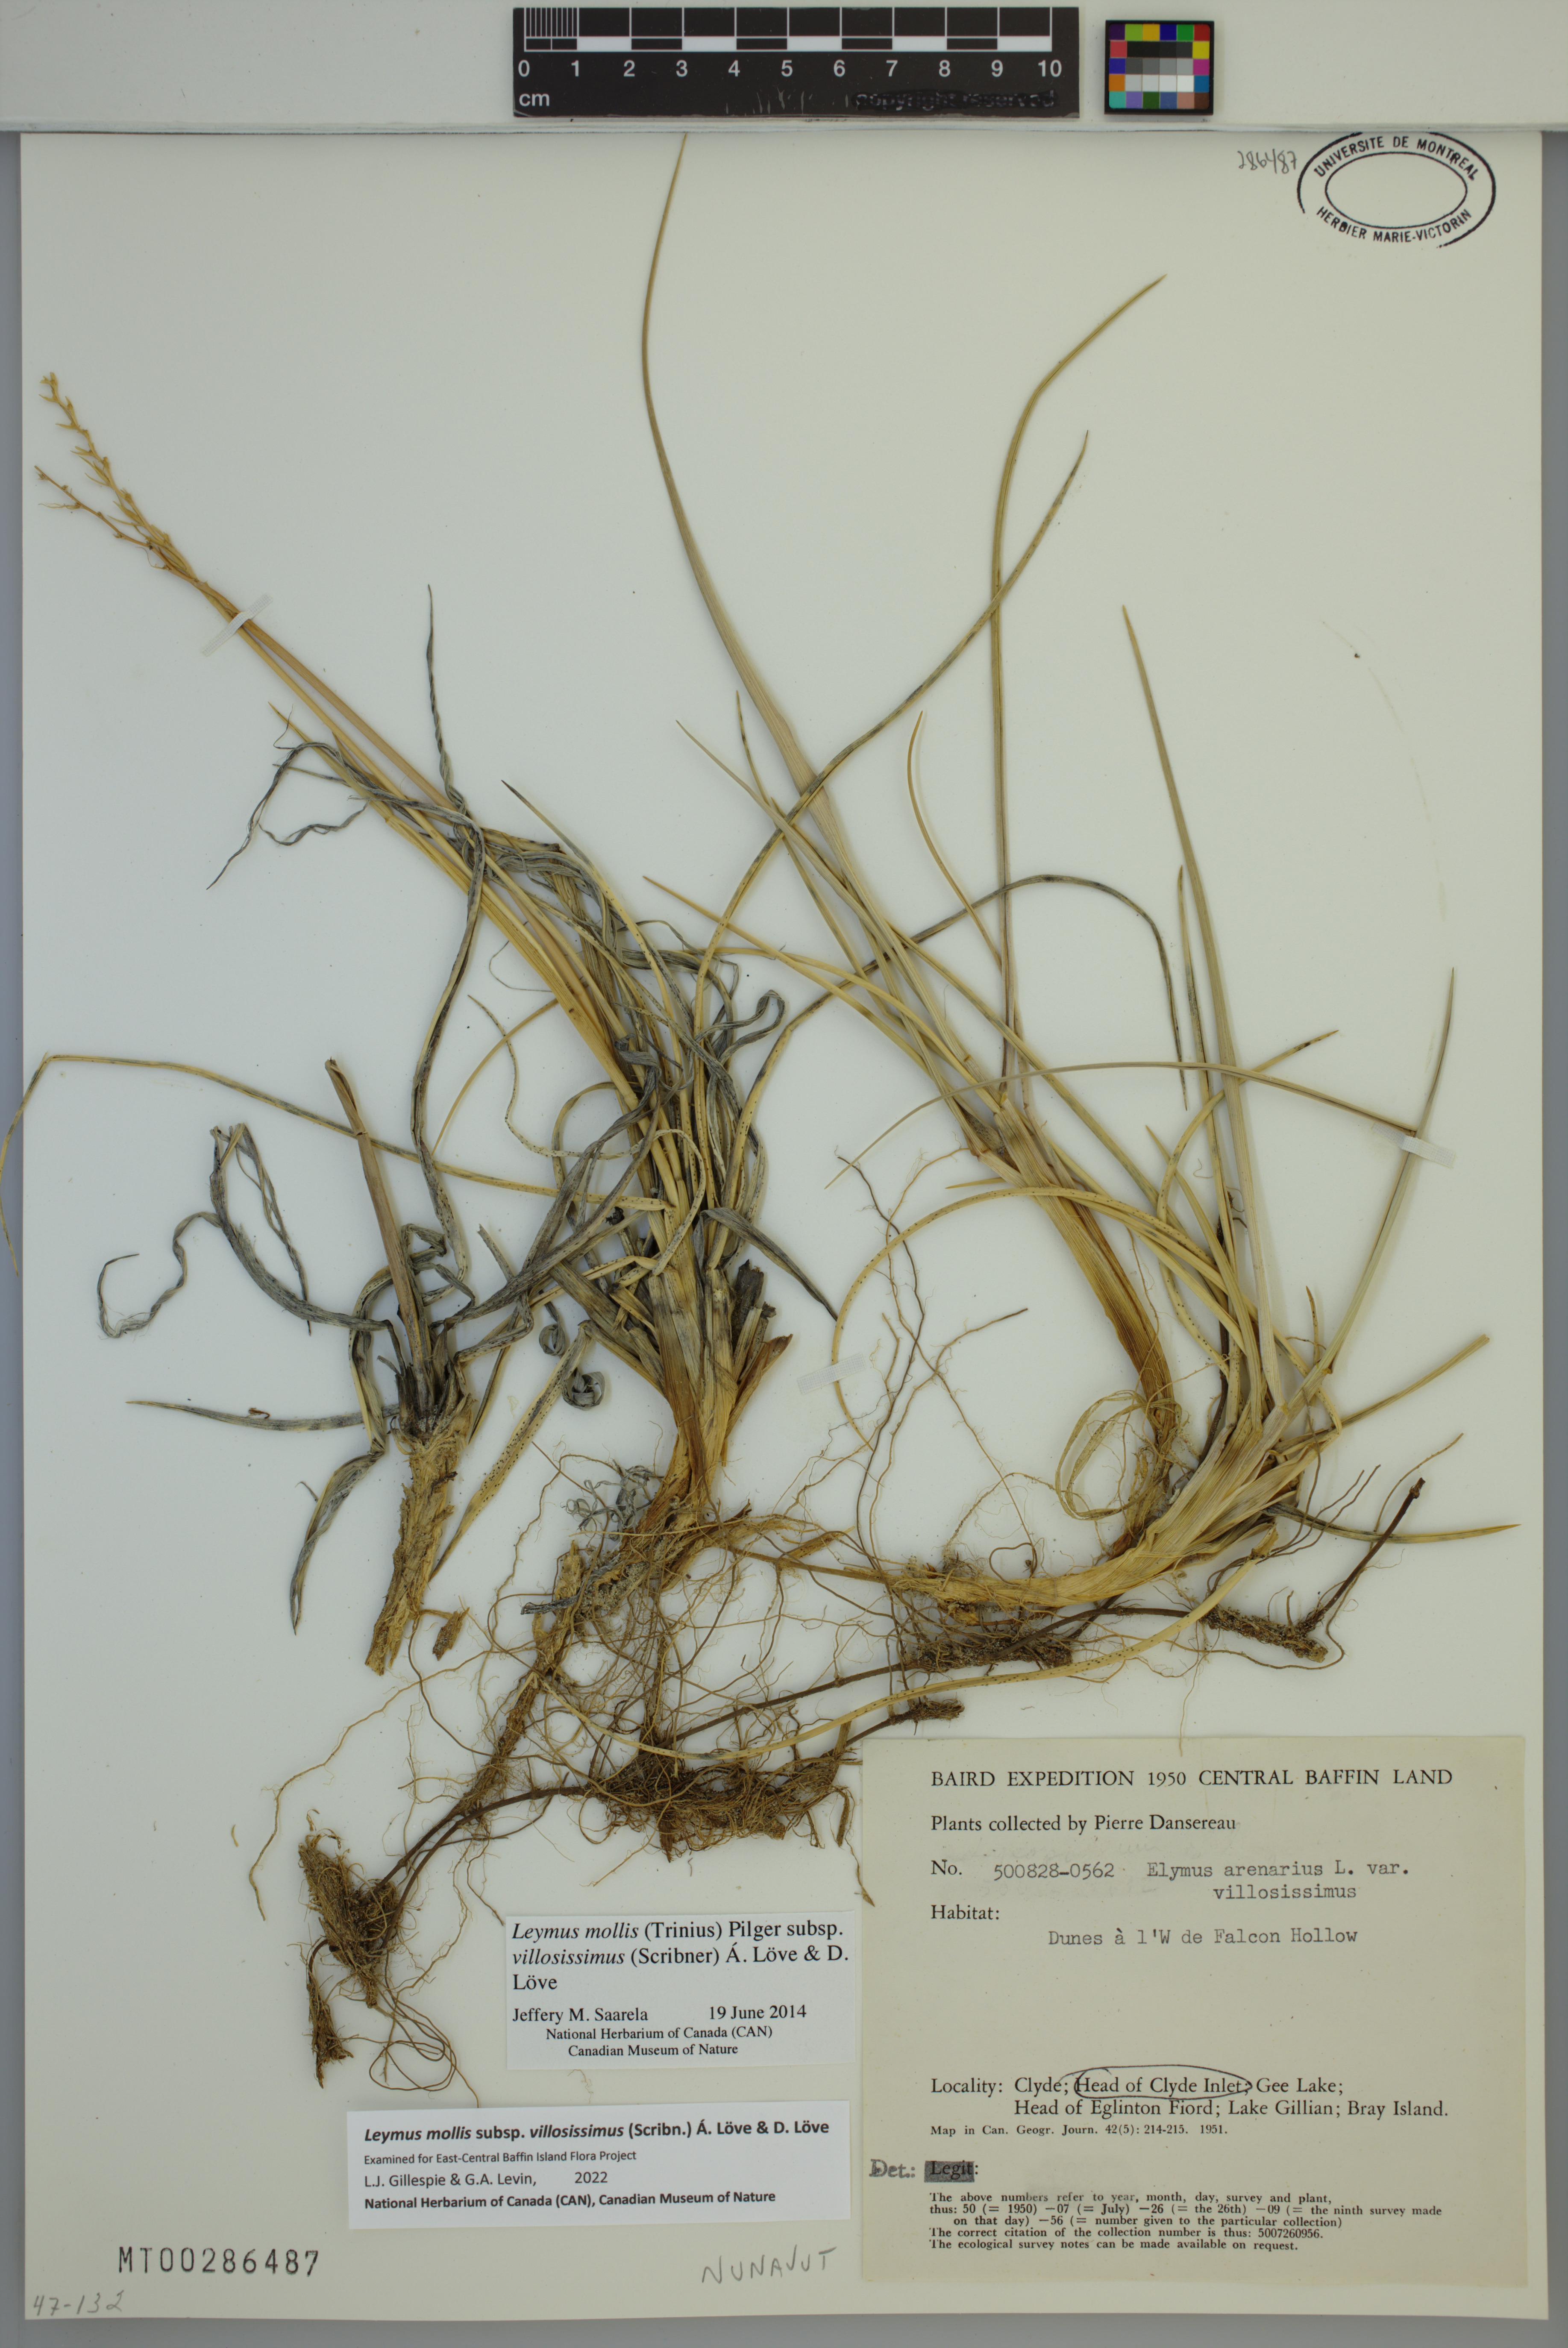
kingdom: Plantae
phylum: Tracheophyta
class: Liliopsida
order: Poales
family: Poaceae
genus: Leymus
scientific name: Leymus villosissimus
